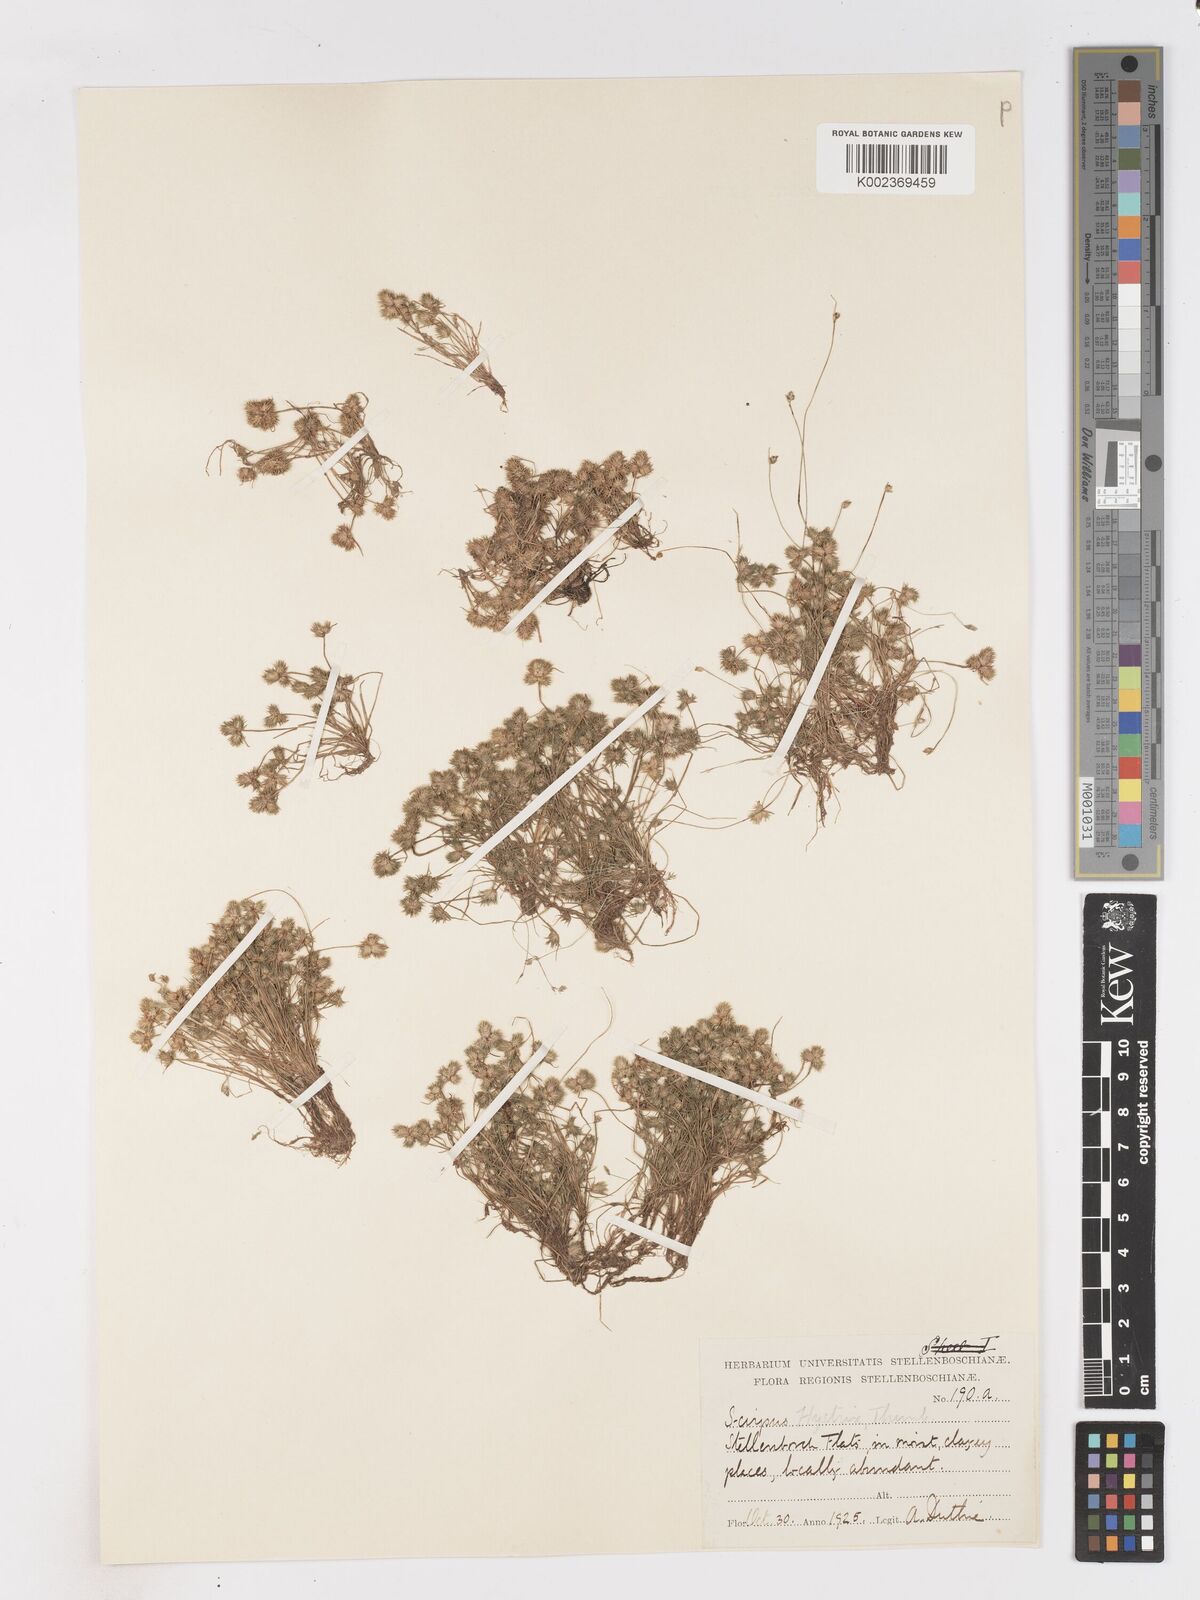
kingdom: Plantae
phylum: Tracheophyta
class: Liliopsida
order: Poales
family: Cyperaceae
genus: Isolepis
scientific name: Isolepis hystrix
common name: Bottlebrush bulrush
